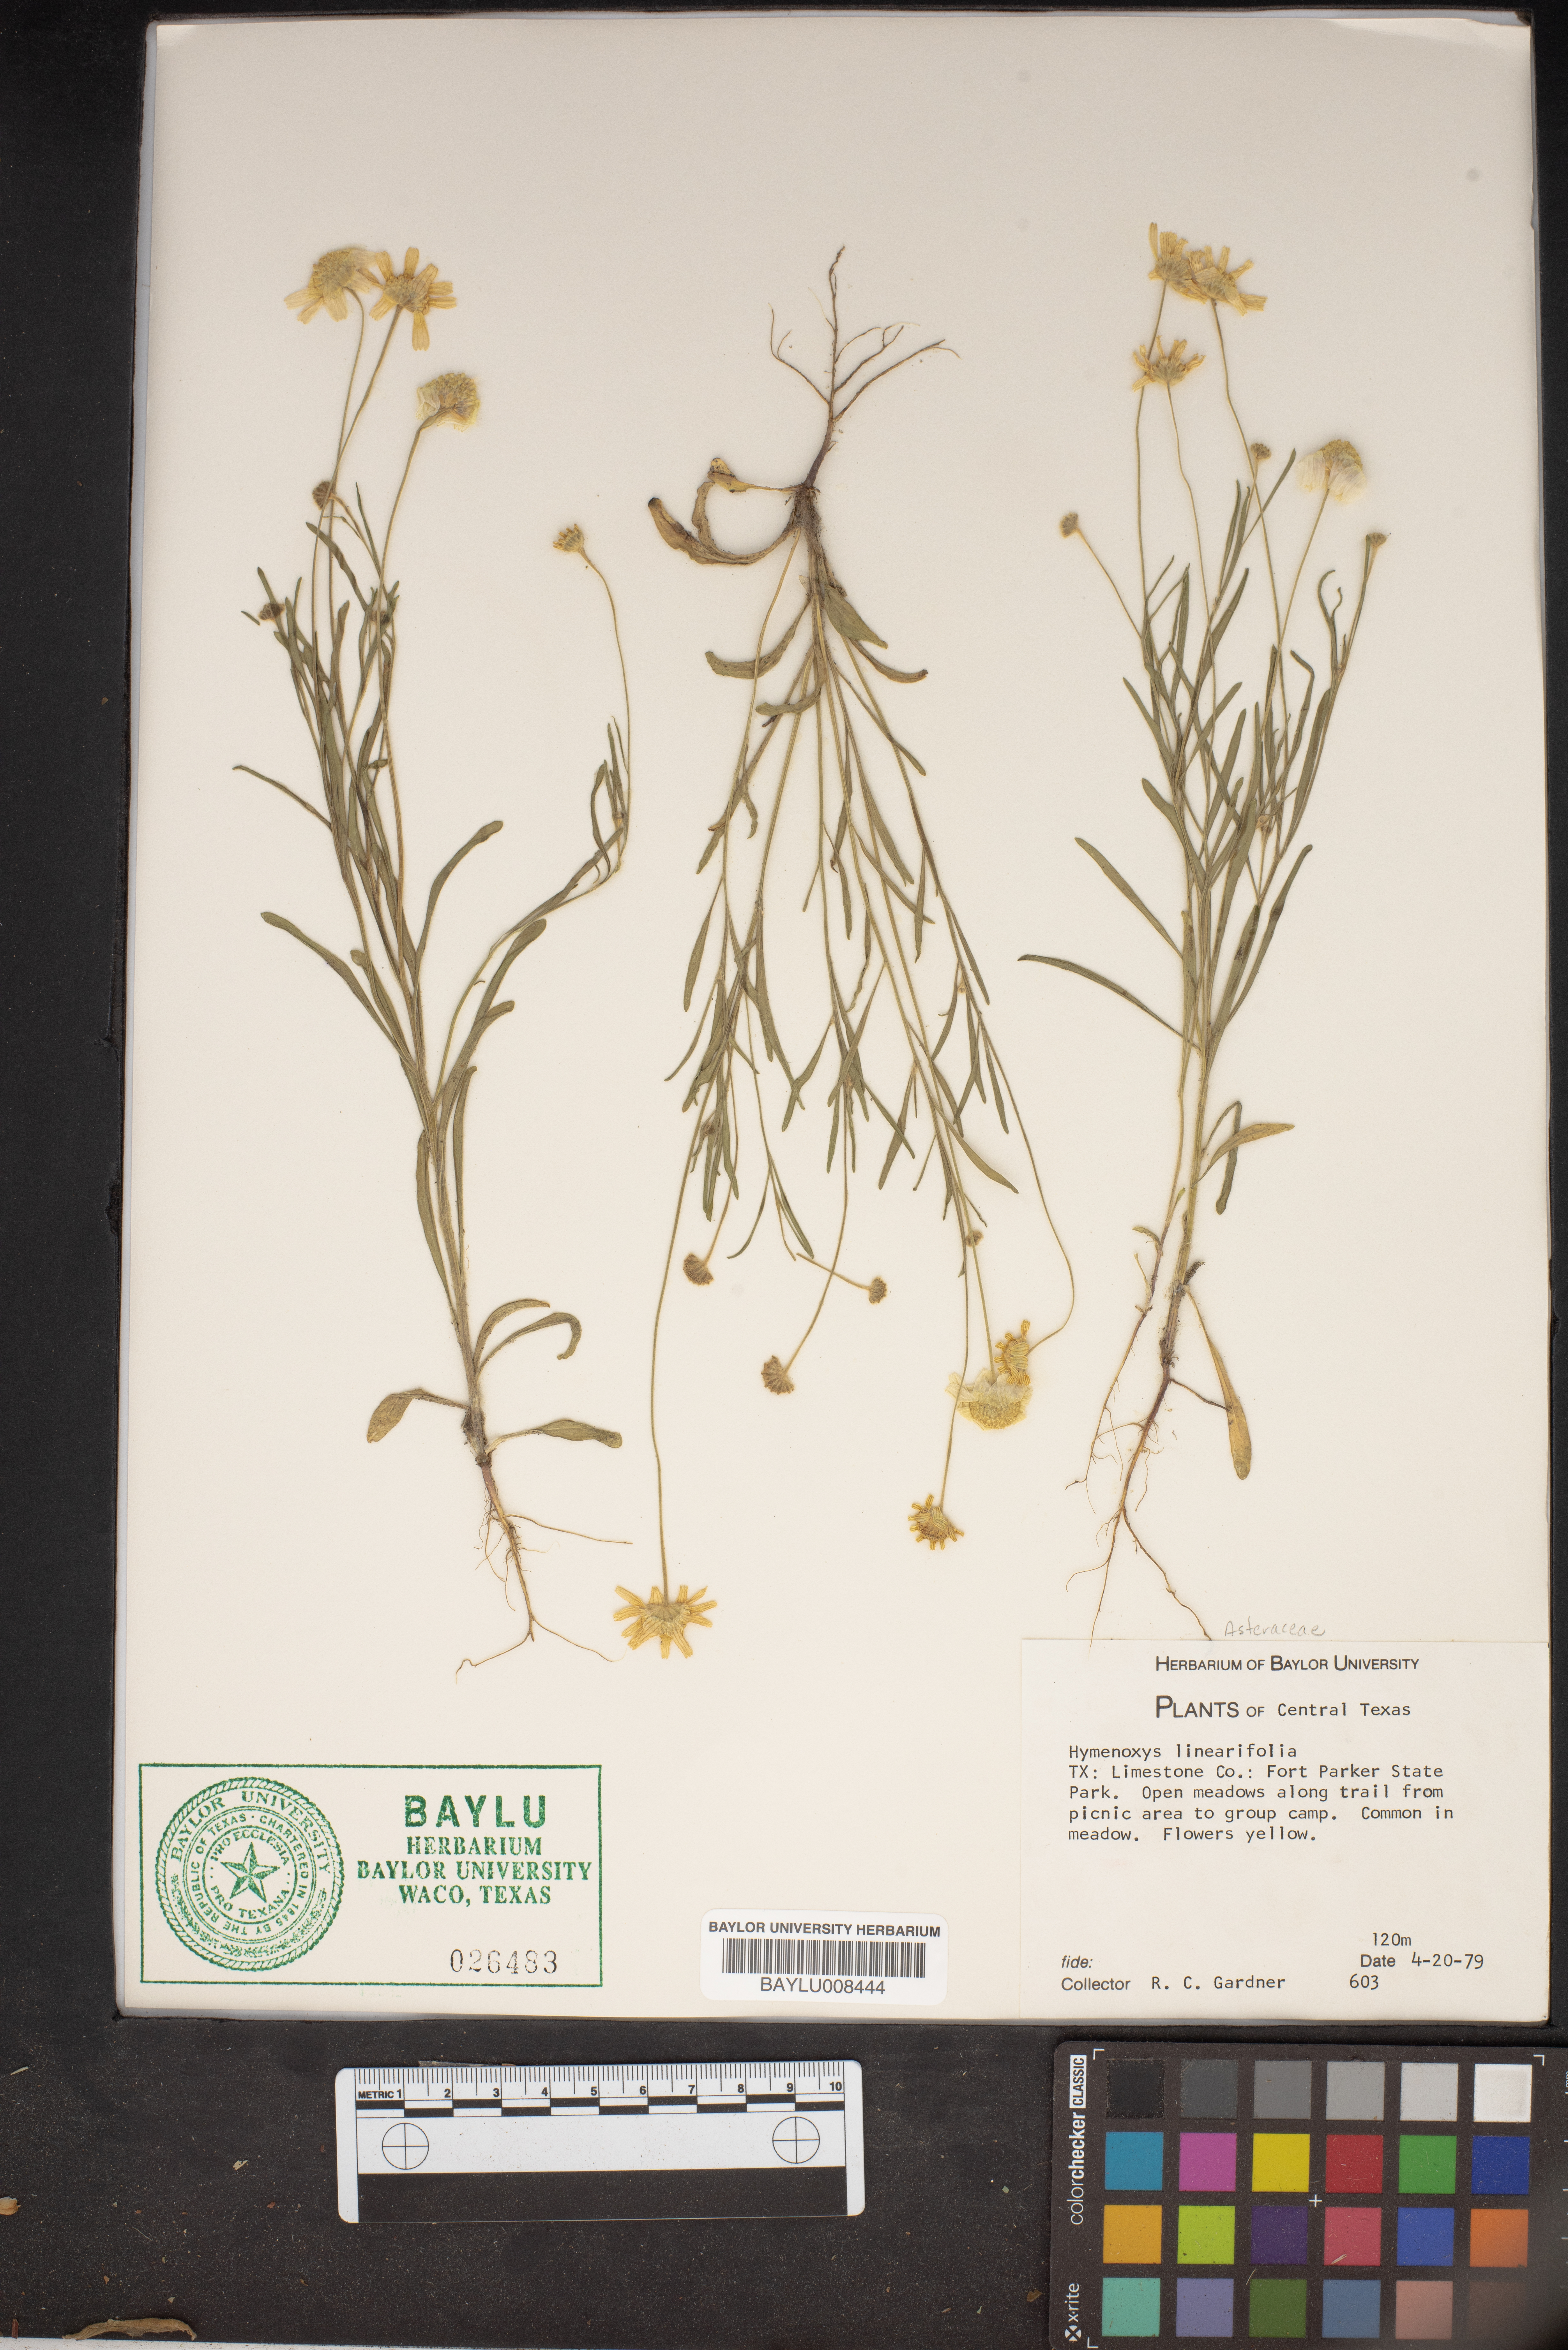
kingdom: Plantae
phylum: Tracheophyta
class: Magnoliopsida
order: Asterales
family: Asteraceae
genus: Tetraneuris
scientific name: Tetraneuris linearifolia
